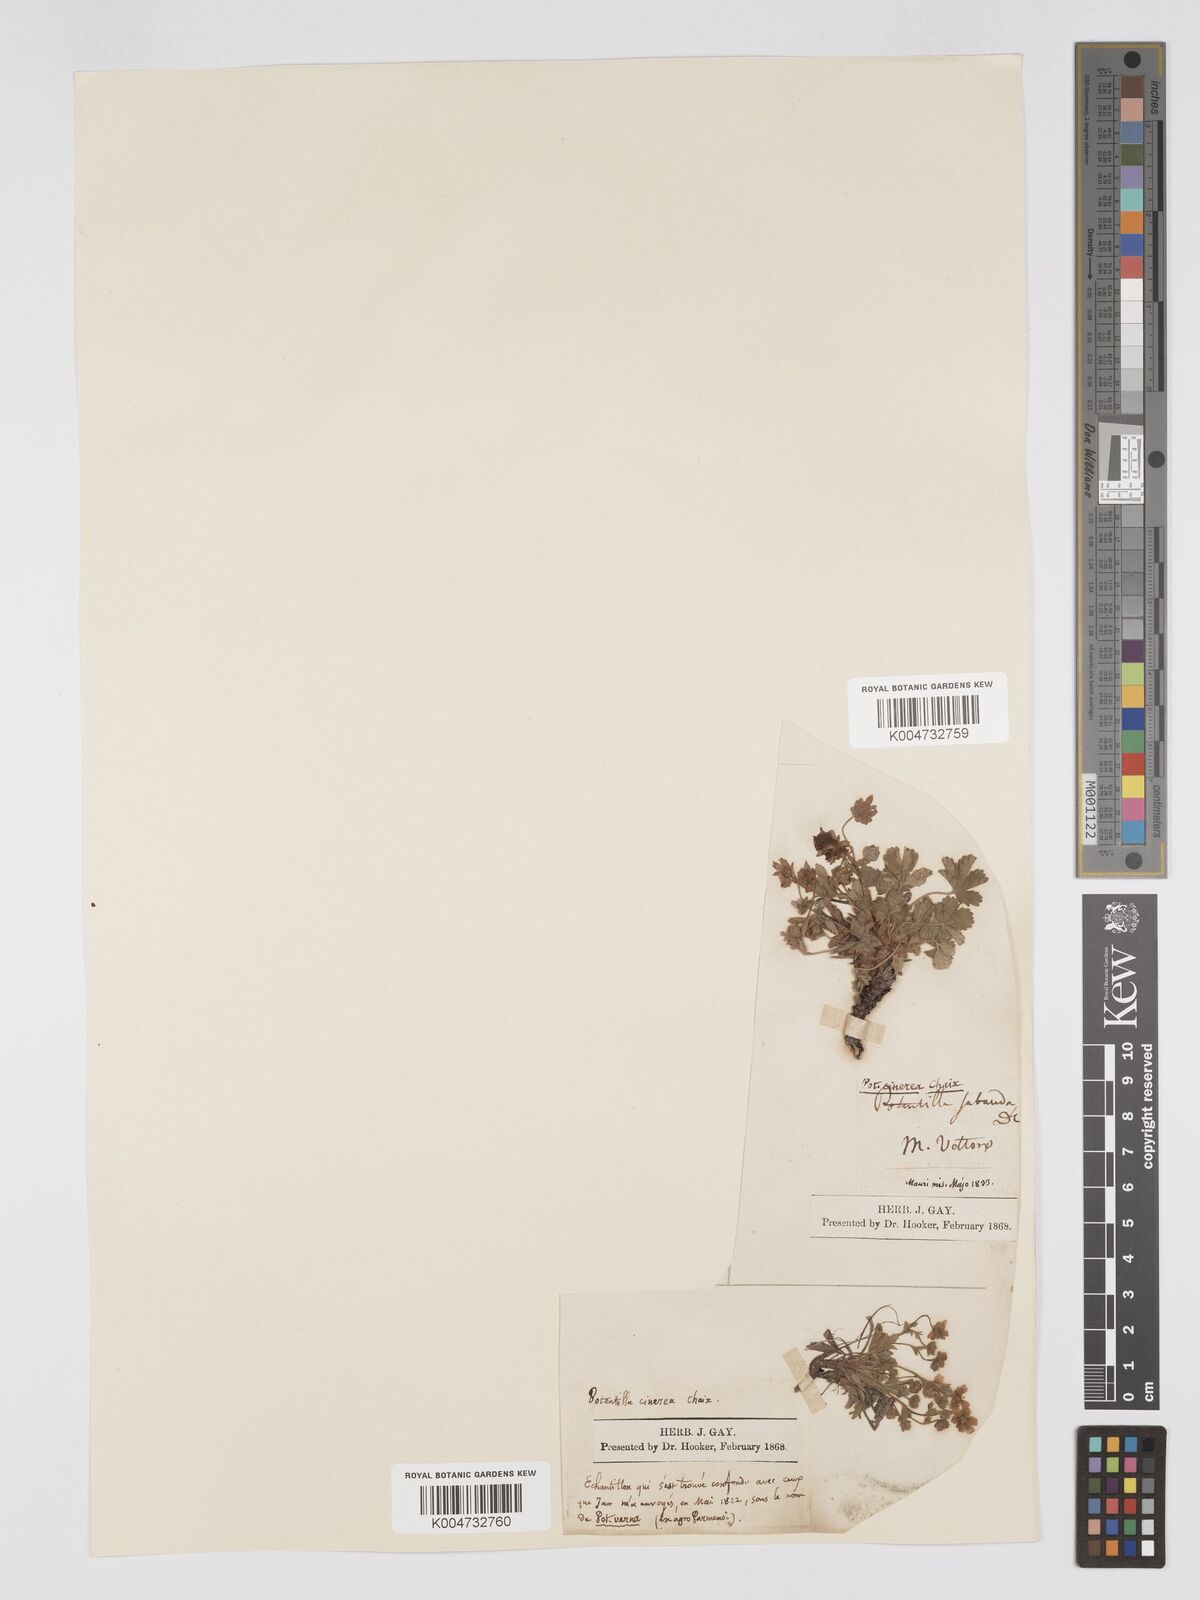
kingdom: Plantae
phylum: Tracheophyta
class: Magnoliopsida
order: Rosales
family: Rosaceae
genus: Potentilla
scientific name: Potentilla
